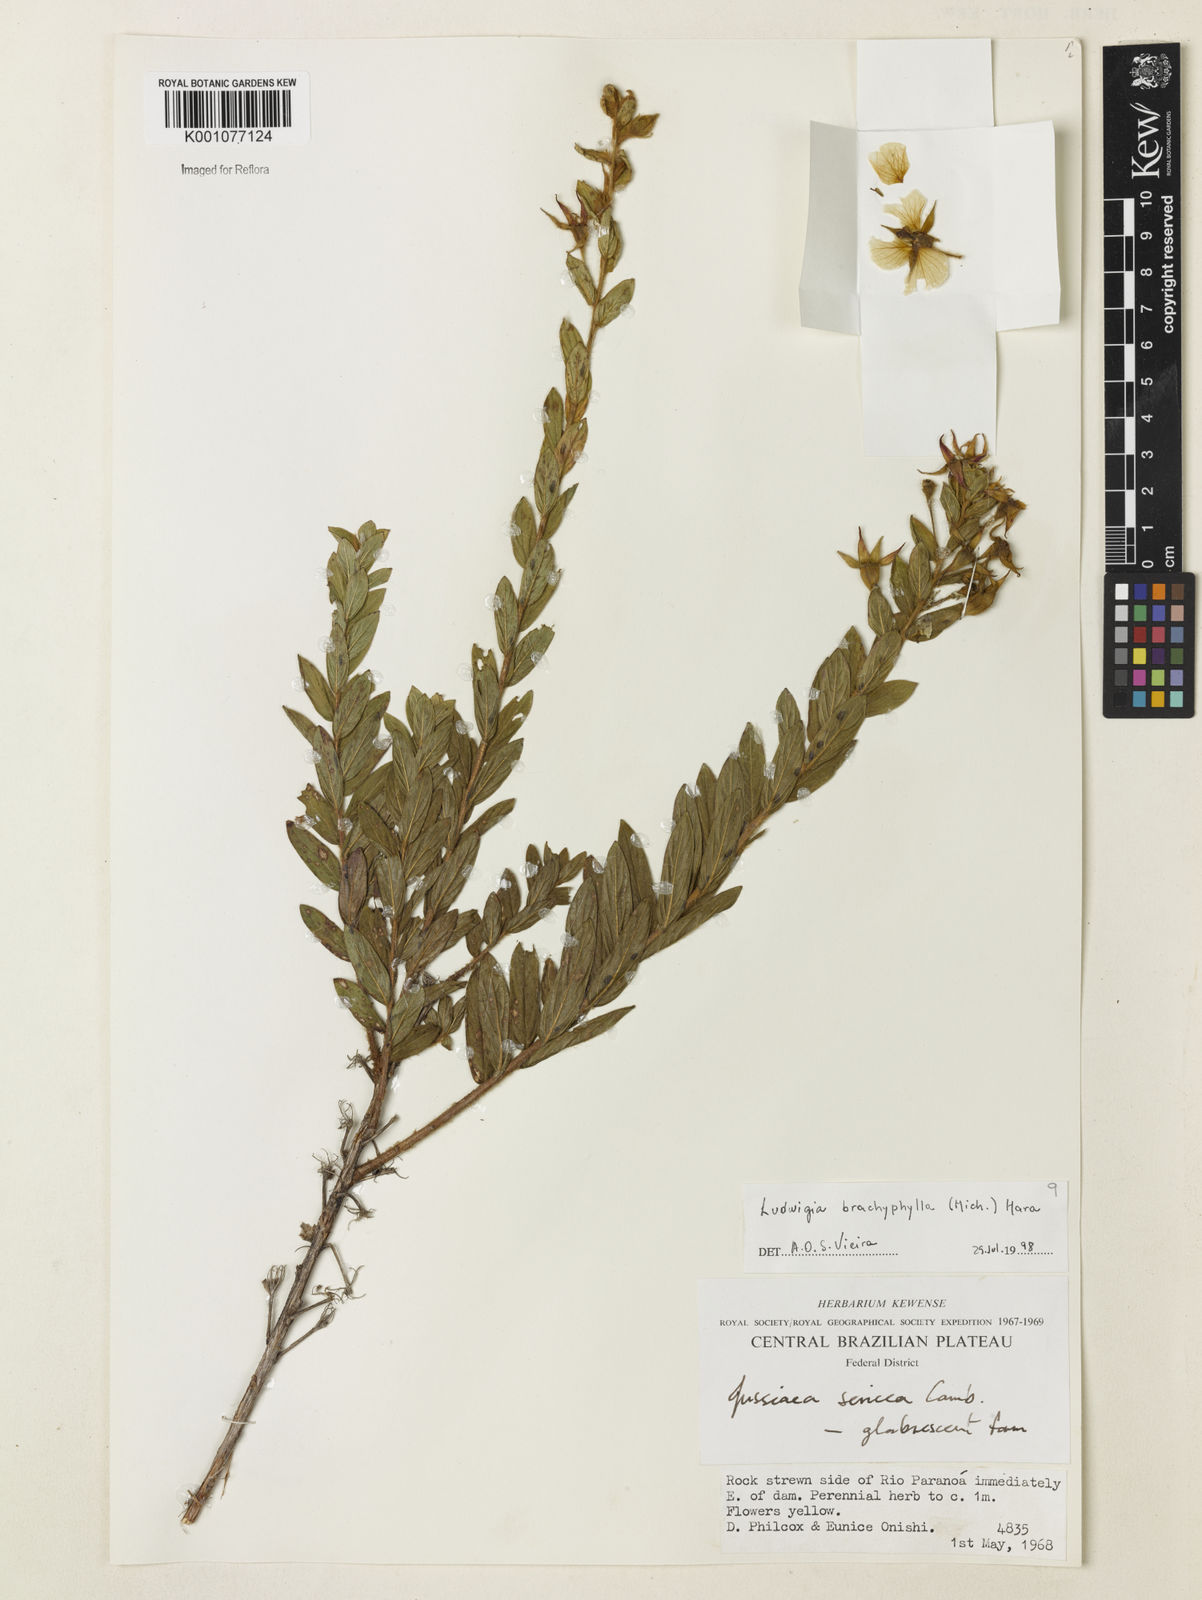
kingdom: Plantae
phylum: Tracheophyta
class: Magnoliopsida
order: Myrtales
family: Onagraceae
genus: Ludwigia
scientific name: Ludwigia brachyphylla
